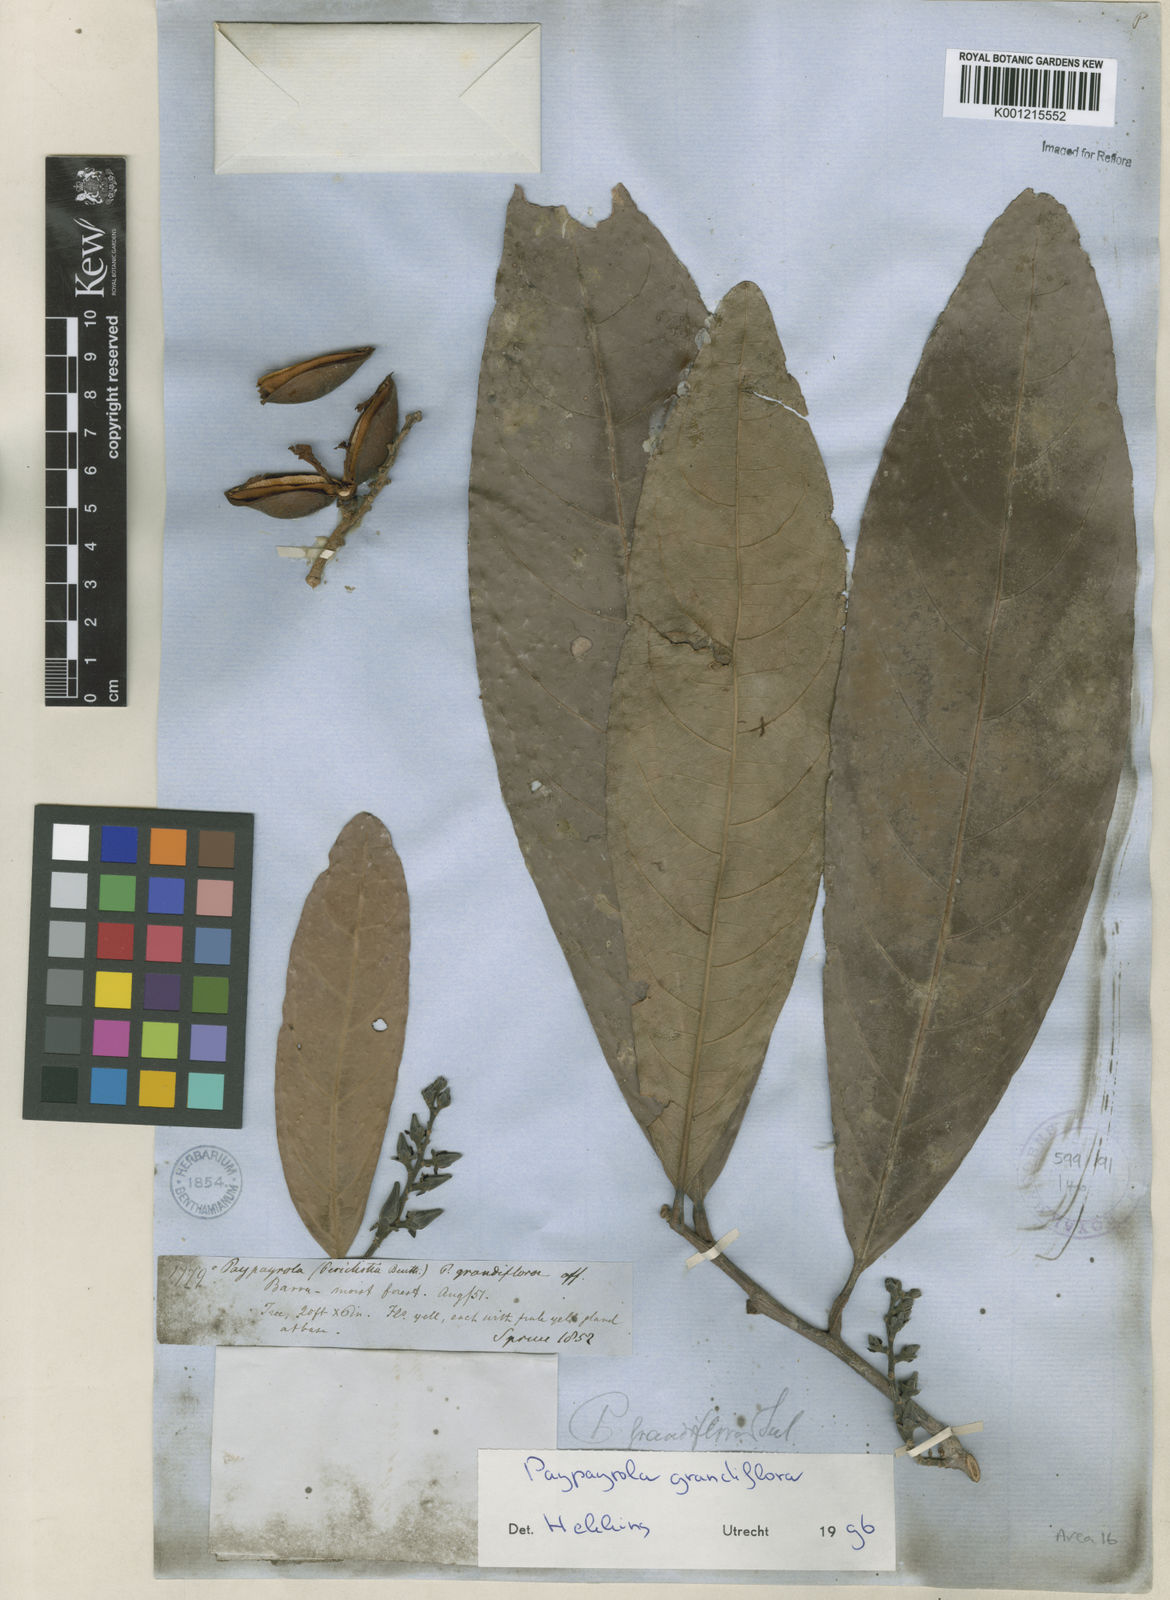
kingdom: Plantae
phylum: Tracheophyta
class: Magnoliopsida
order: Malpighiales
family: Violaceae
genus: Paypayrola
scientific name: Paypayrola grandiflora
